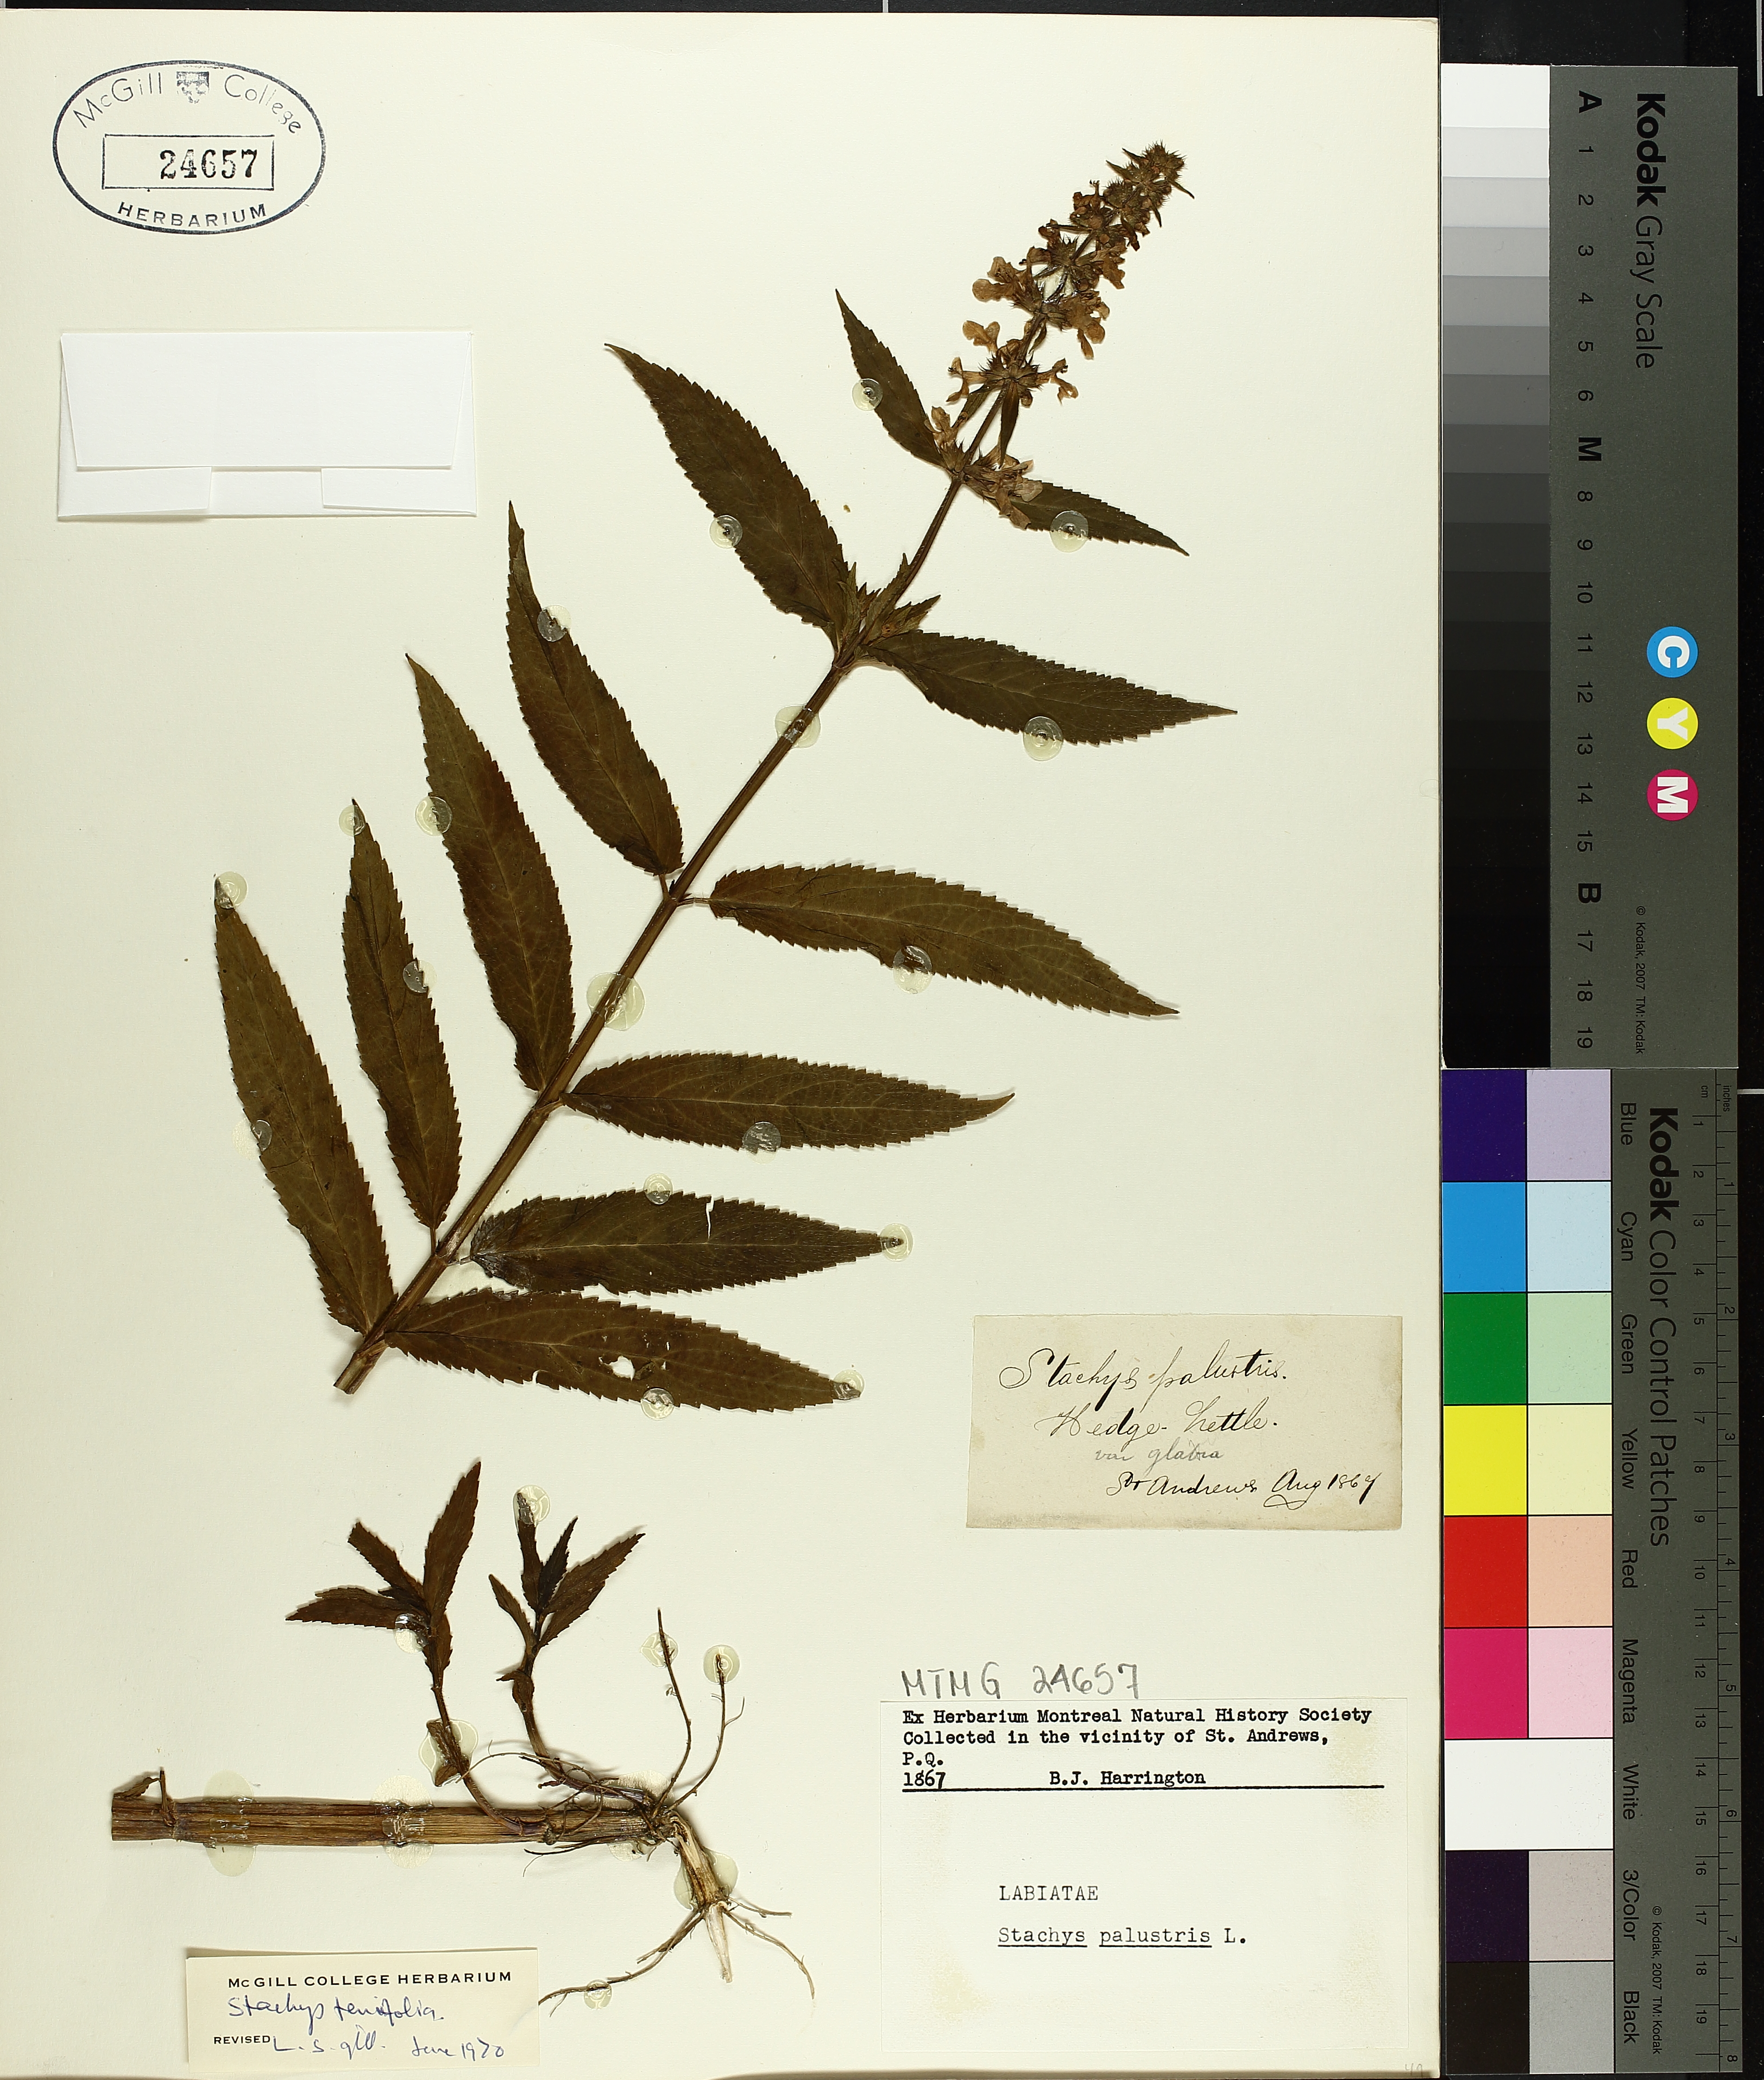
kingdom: Plantae
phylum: Tracheophyta
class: Magnoliopsida
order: Lamiales
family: Lamiaceae
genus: Stachys
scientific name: Stachys tenuifolia
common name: Smooth hedge-nettle
